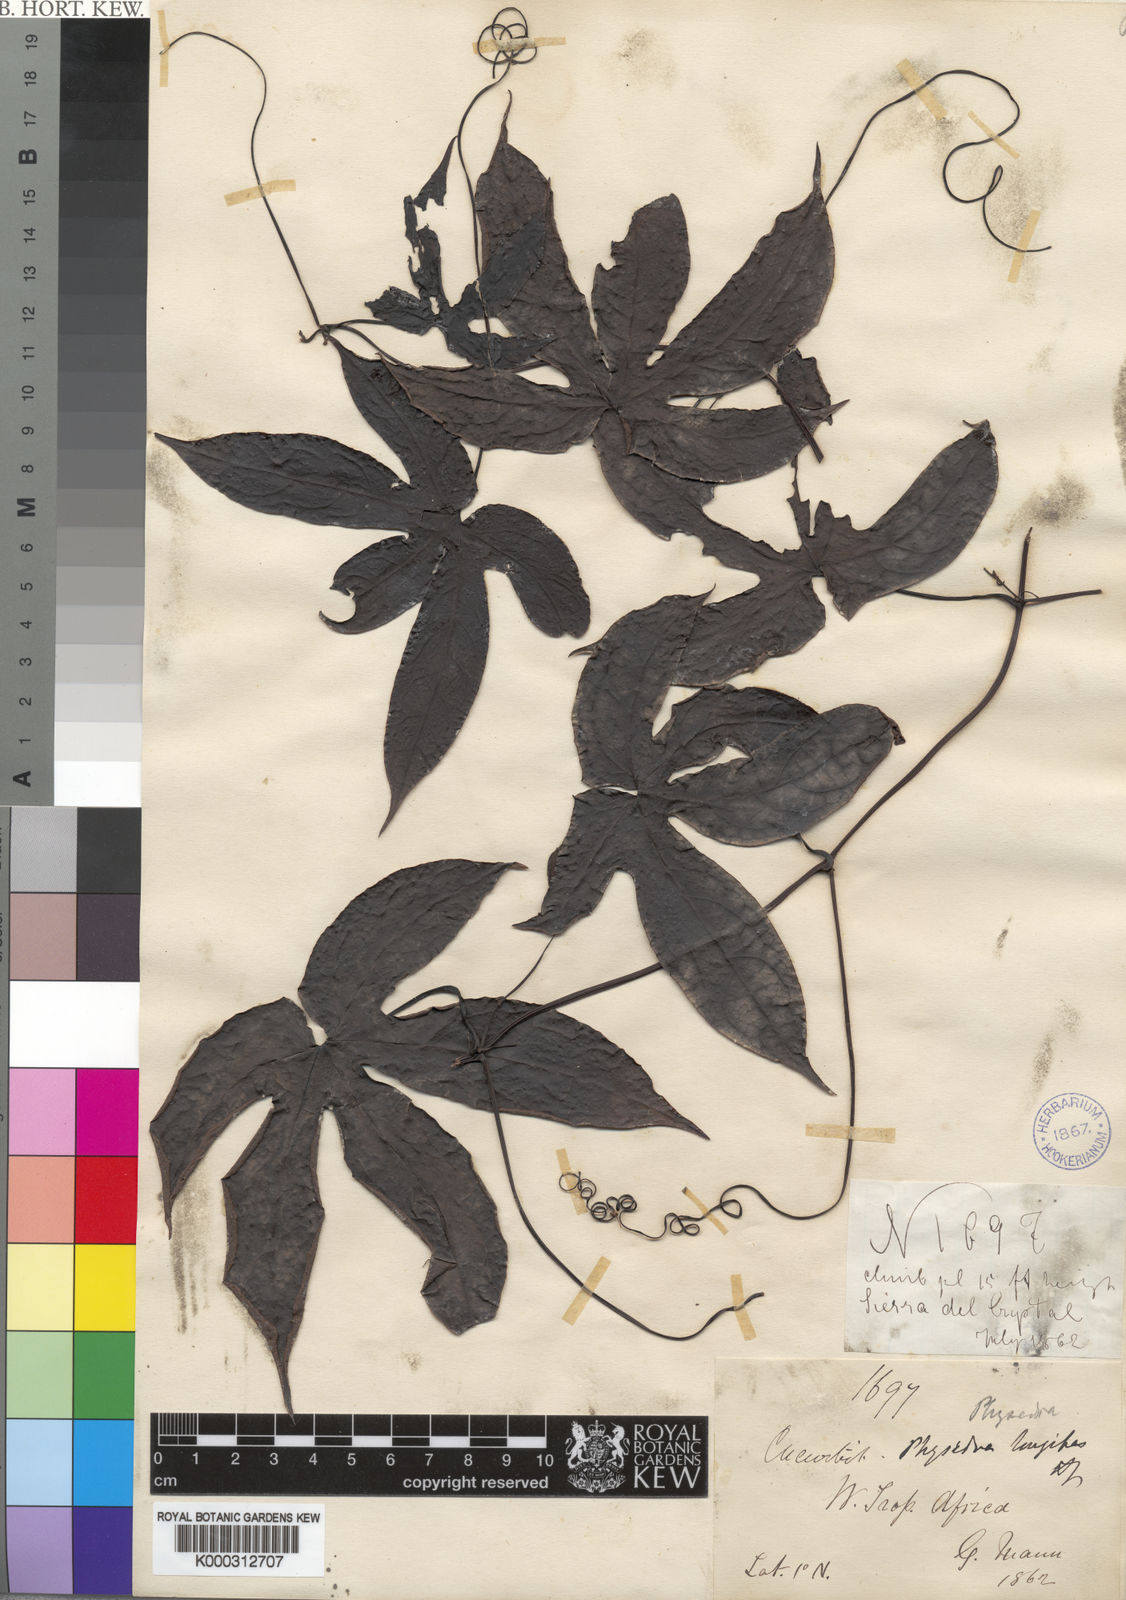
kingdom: Plantae
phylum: Tracheophyta
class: Magnoliopsida
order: Cucurbitales
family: Cucurbitaceae
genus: Ruthalicia
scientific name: Ruthalicia longipes
